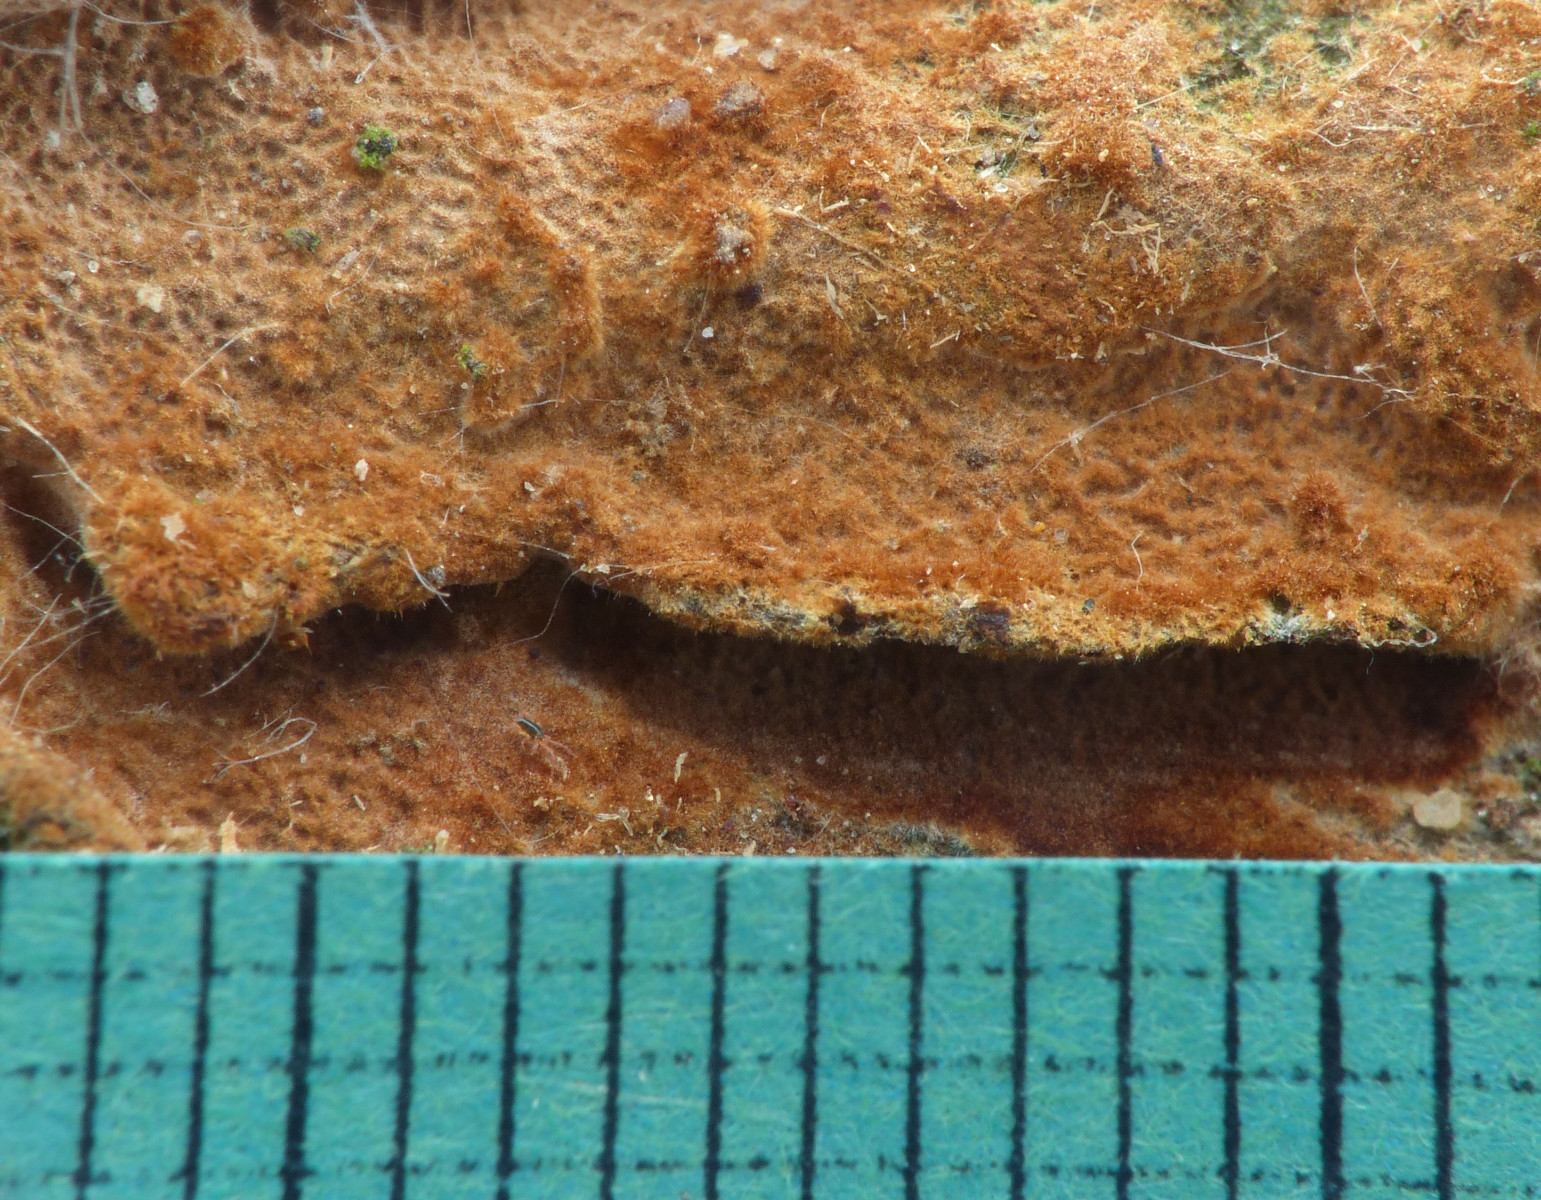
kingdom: Fungi
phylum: Basidiomycota
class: Agaricomycetes
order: Hymenochaetales
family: Hymenochaetaceae
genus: Fuscoporia
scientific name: Fuscoporia ferrea
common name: skorpe-ildporesvamp
